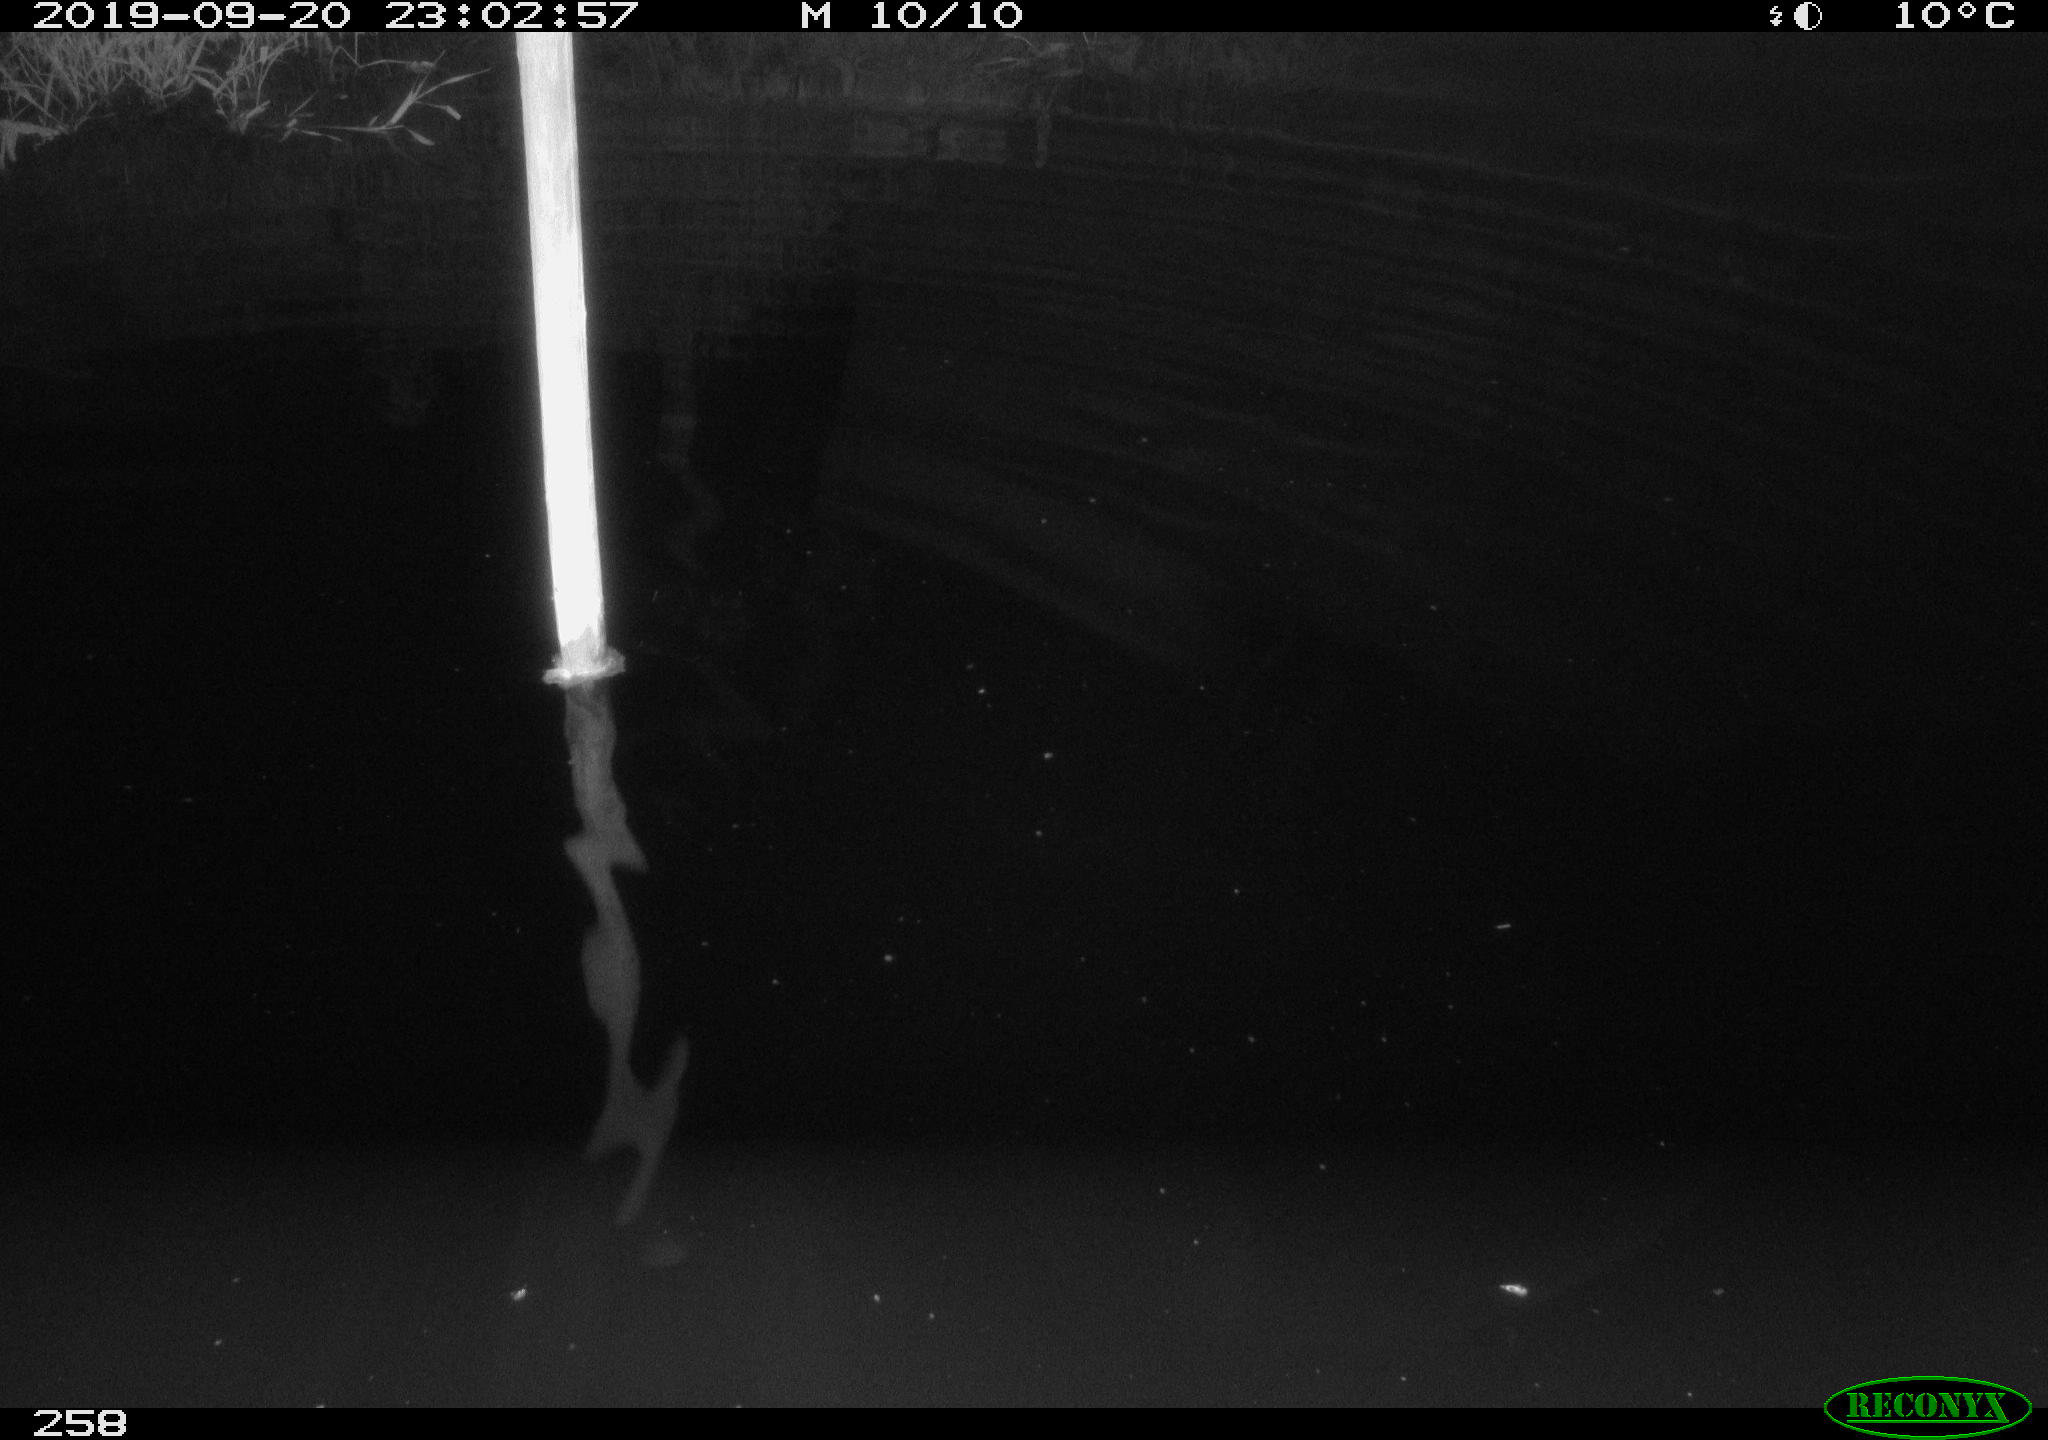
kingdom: Animalia
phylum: Chordata
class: Aves
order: Anseriformes
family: Anatidae
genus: Anas
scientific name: Anas platyrhynchos
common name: Mallard
